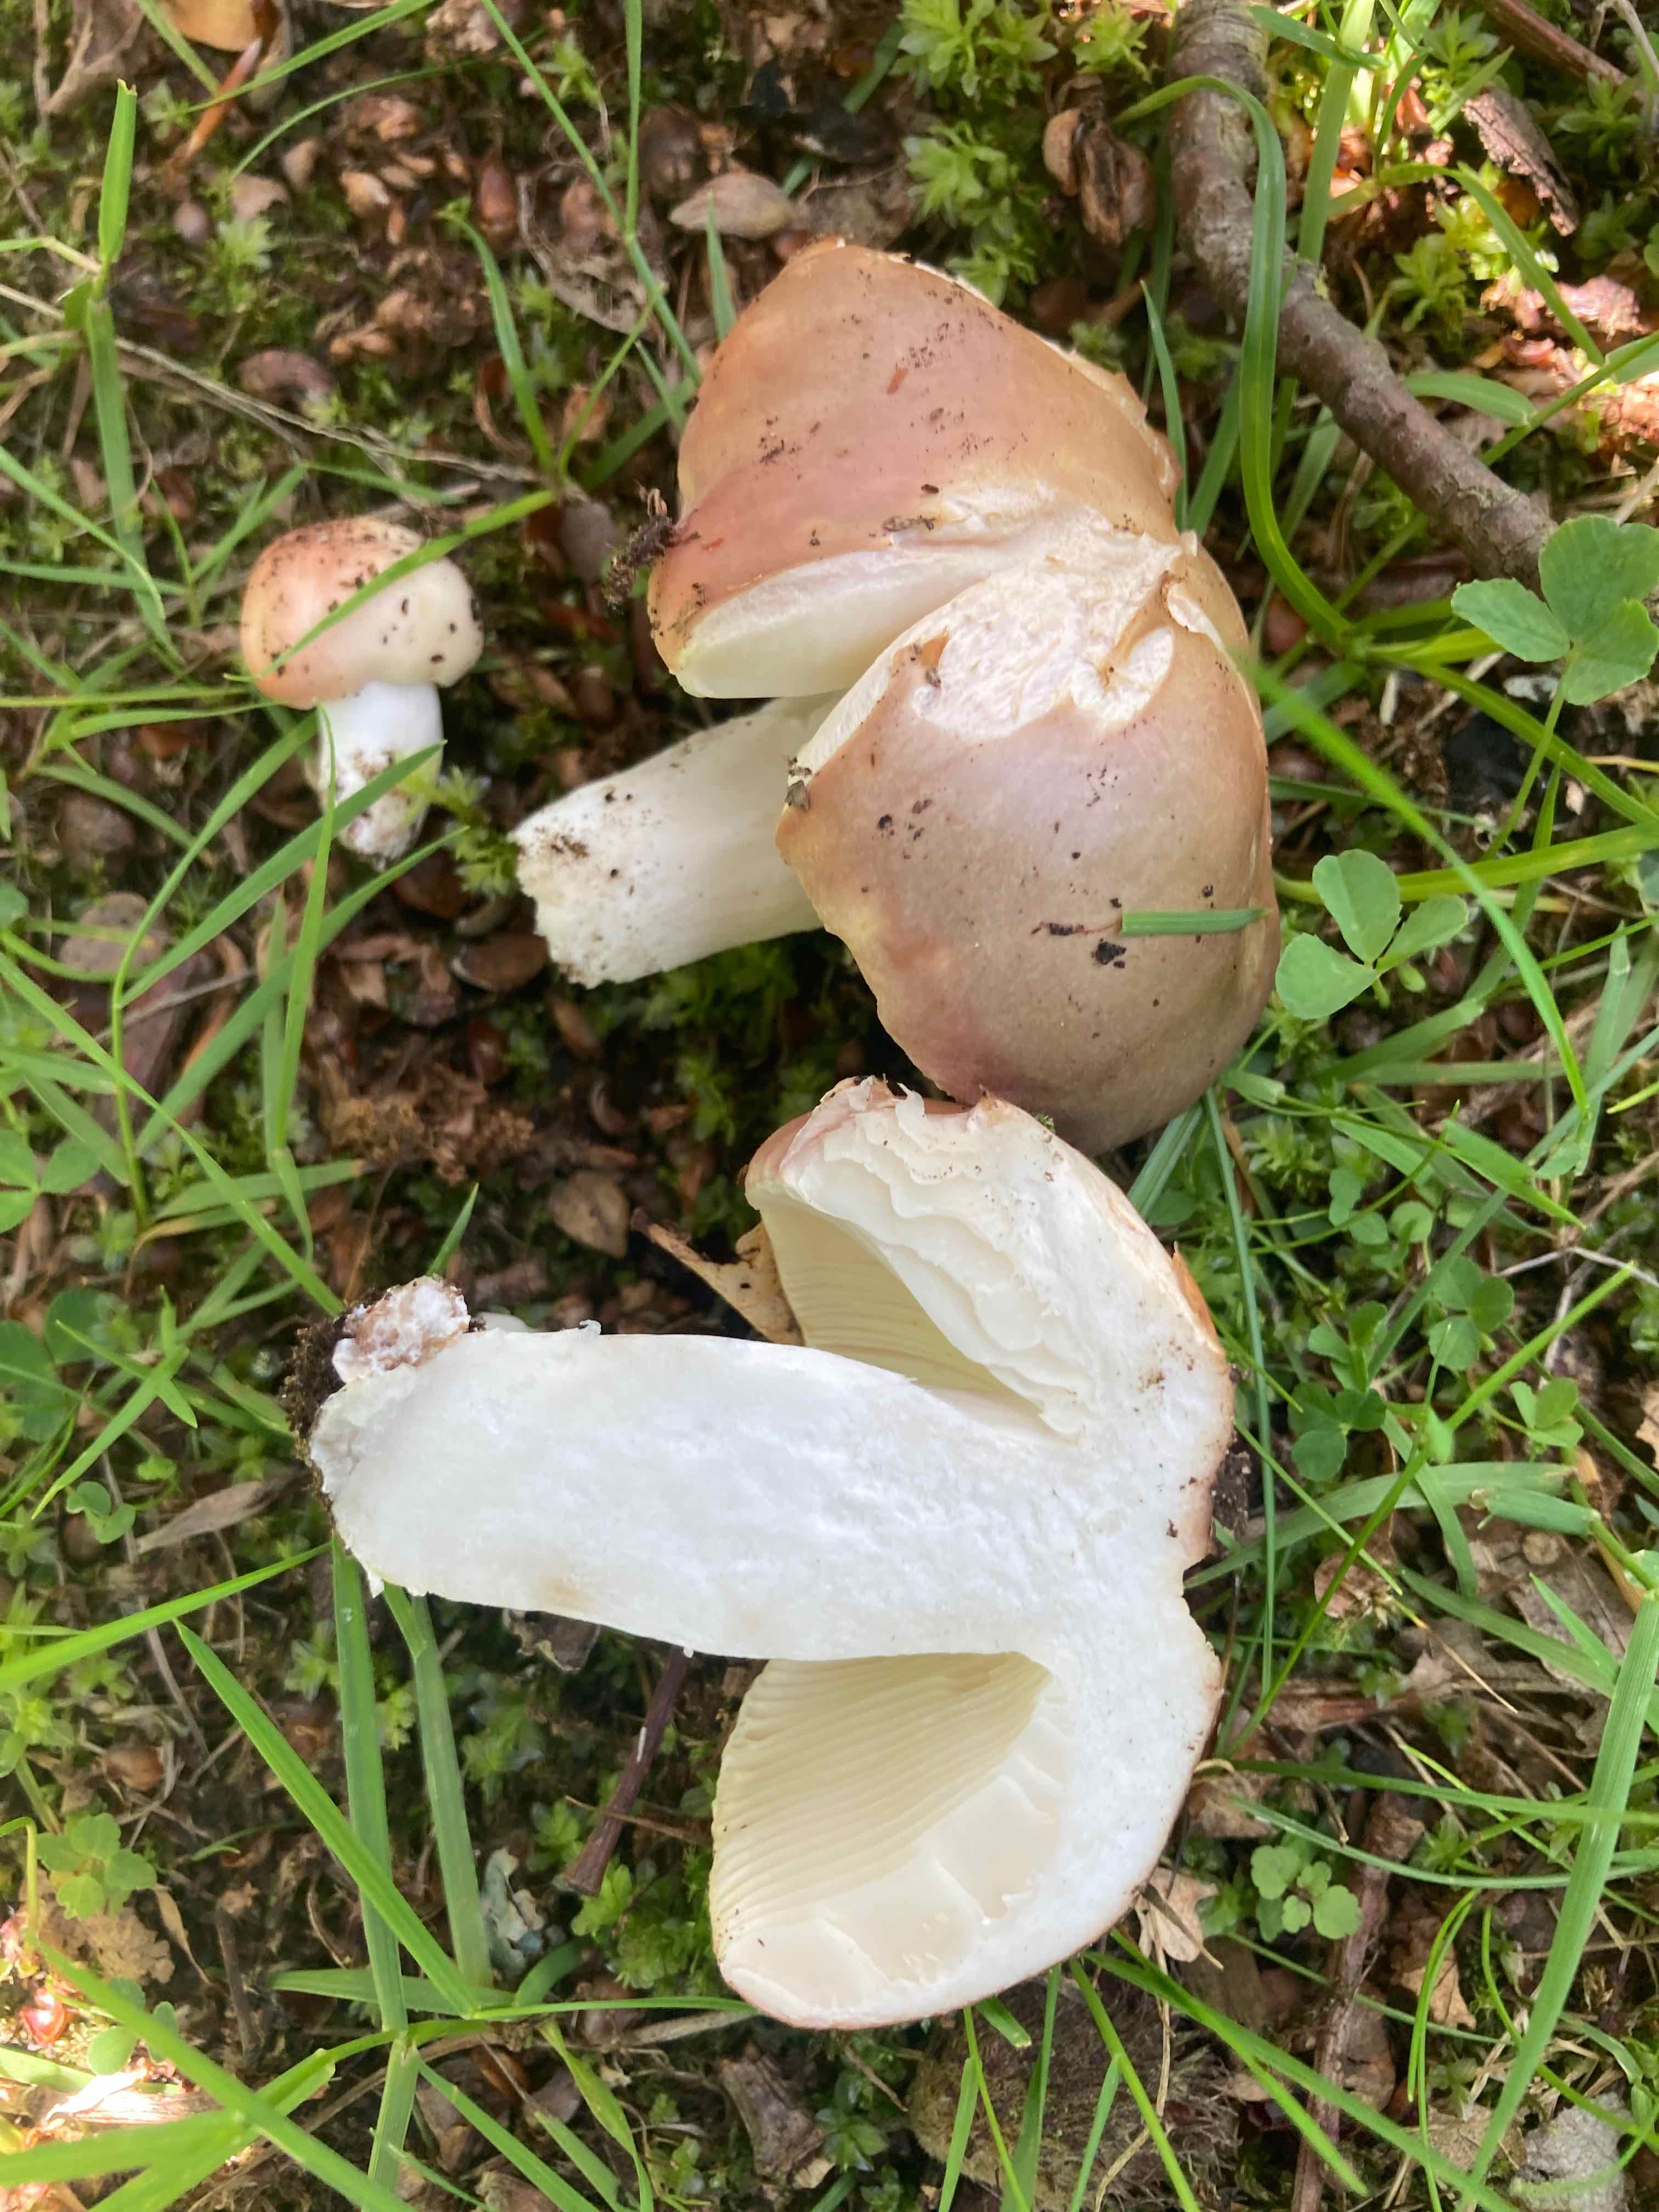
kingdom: Fungi
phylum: Basidiomycota
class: Agaricomycetes
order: Russulales
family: Russulaceae
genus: Russula
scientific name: Russula vesca
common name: spiselig skørhat
